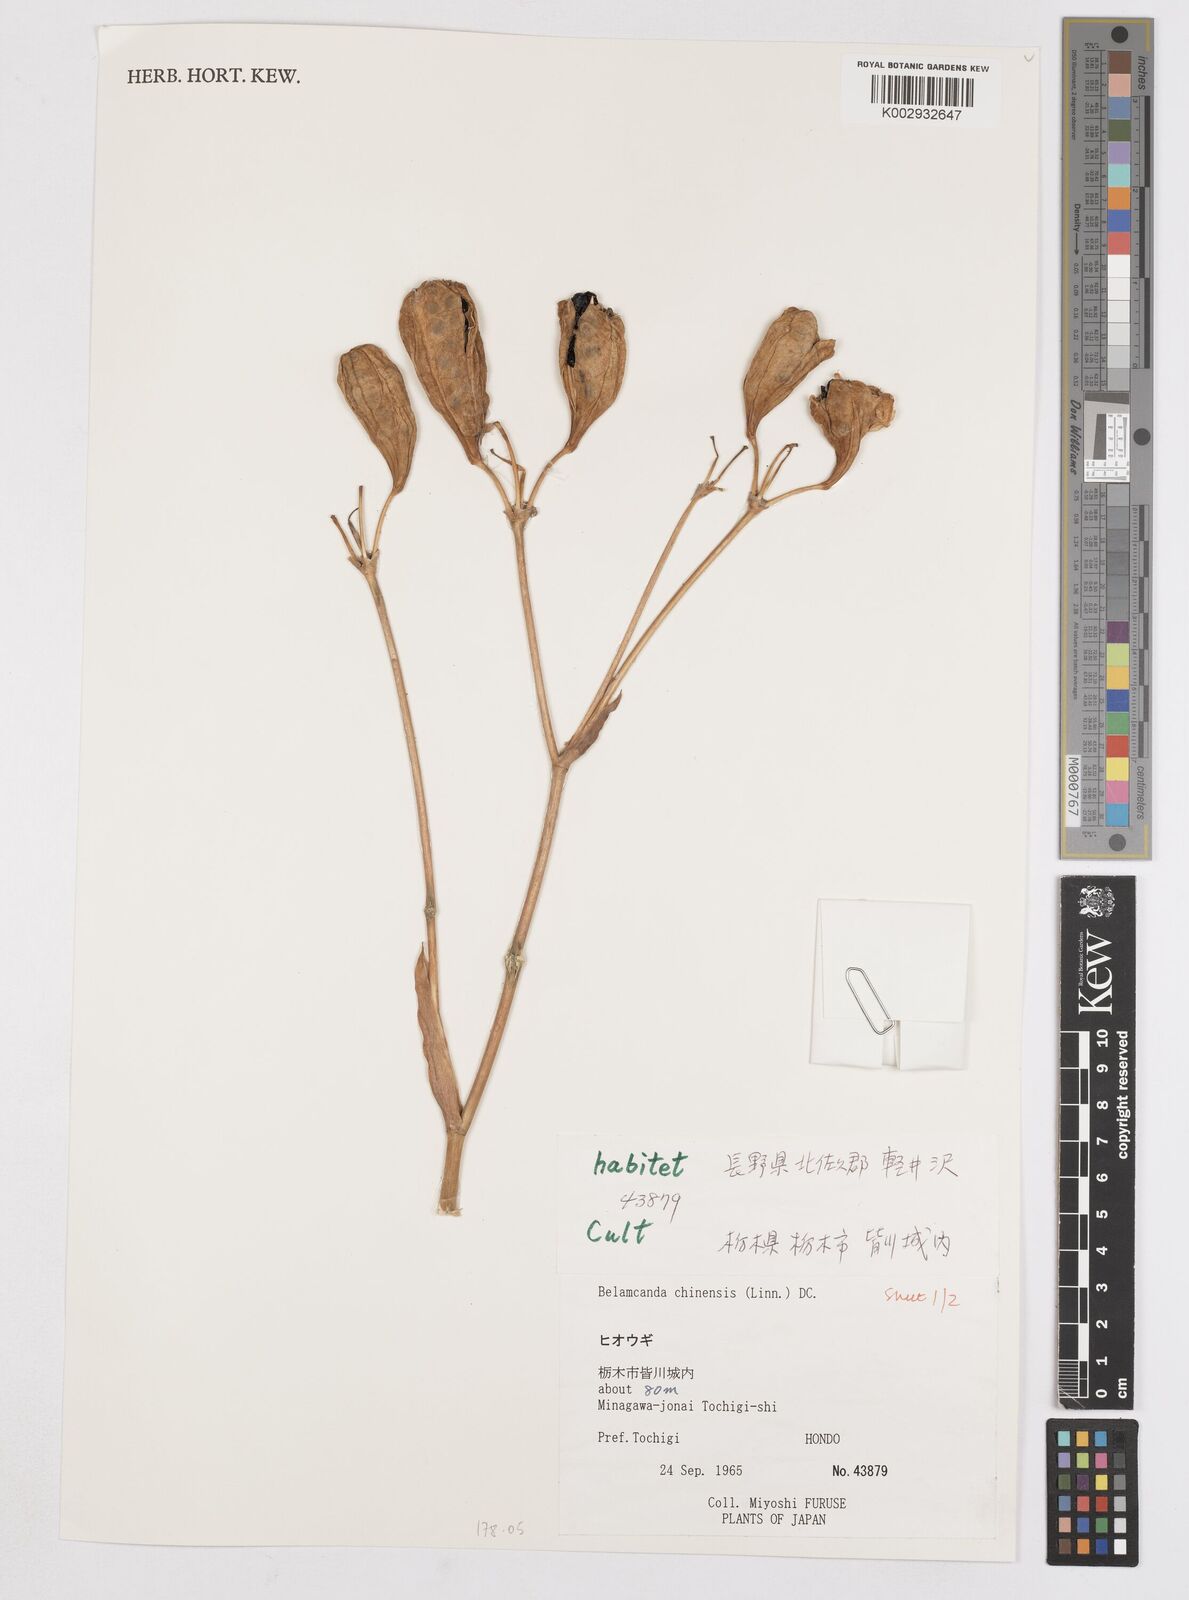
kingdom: Plantae
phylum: Tracheophyta
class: Liliopsida
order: Asparagales
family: Iridaceae
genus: Iris
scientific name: Iris
